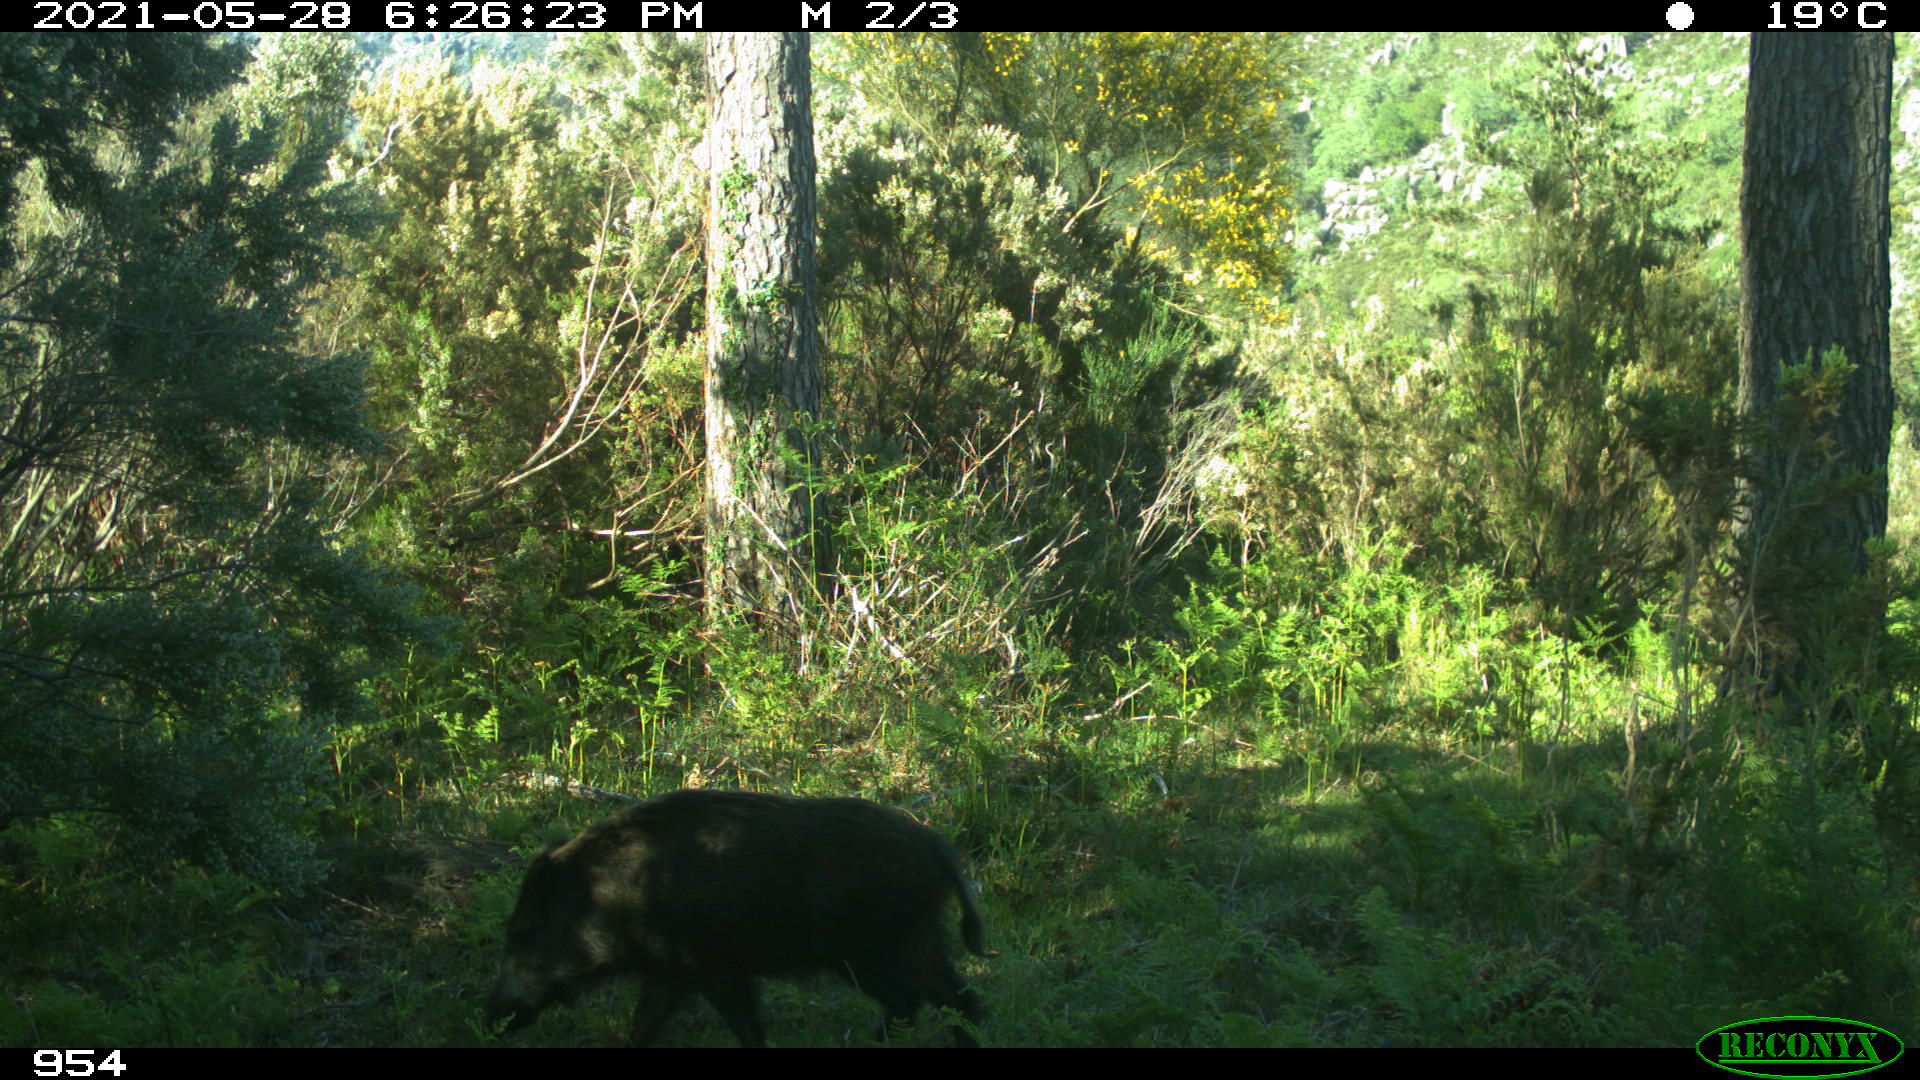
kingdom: Animalia
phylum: Chordata
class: Mammalia
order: Artiodactyla
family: Suidae
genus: Sus
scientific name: Sus scrofa
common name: Wild boar
